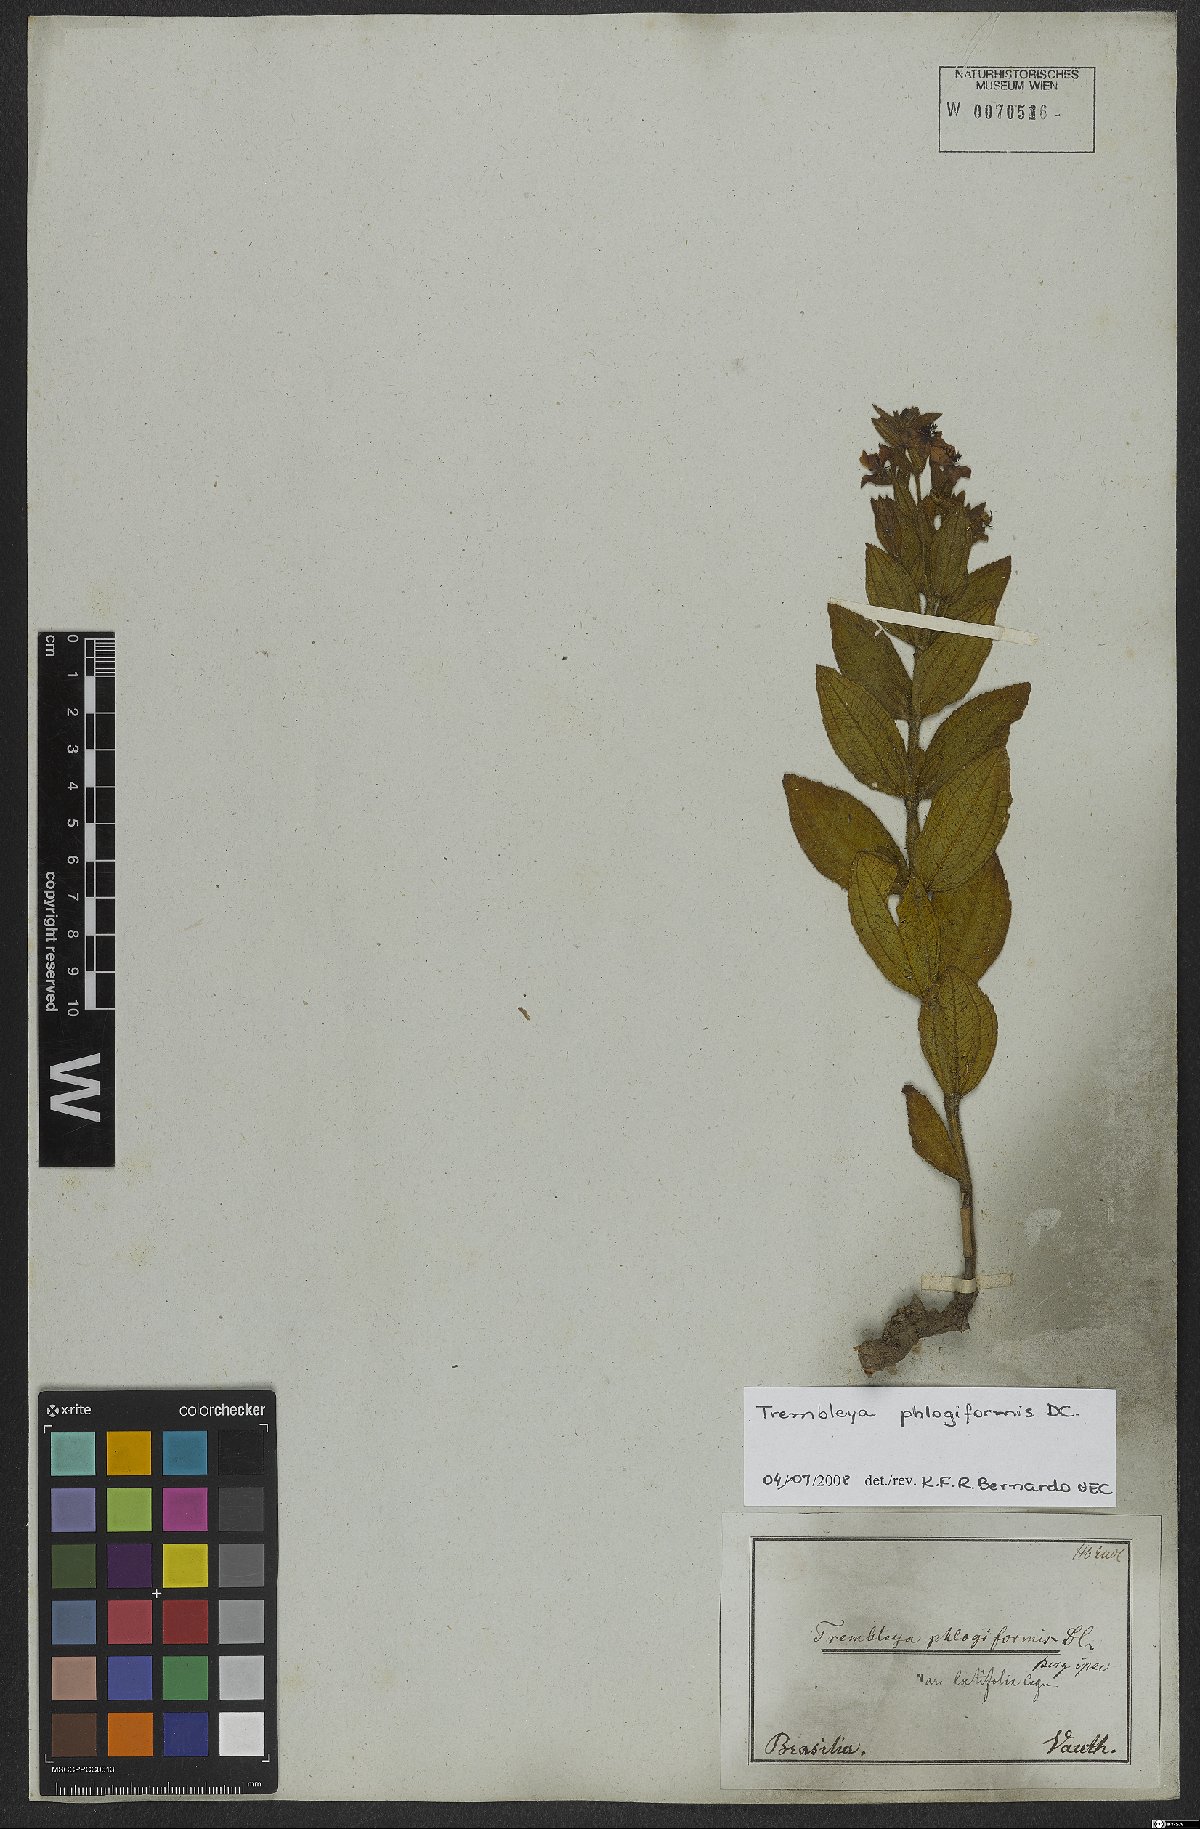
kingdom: Plantae
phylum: Tracheophyta
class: Magnoliopsida
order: Myrtales
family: Melastomataceae
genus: Microlicia
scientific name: Microlicia phlogiformis
